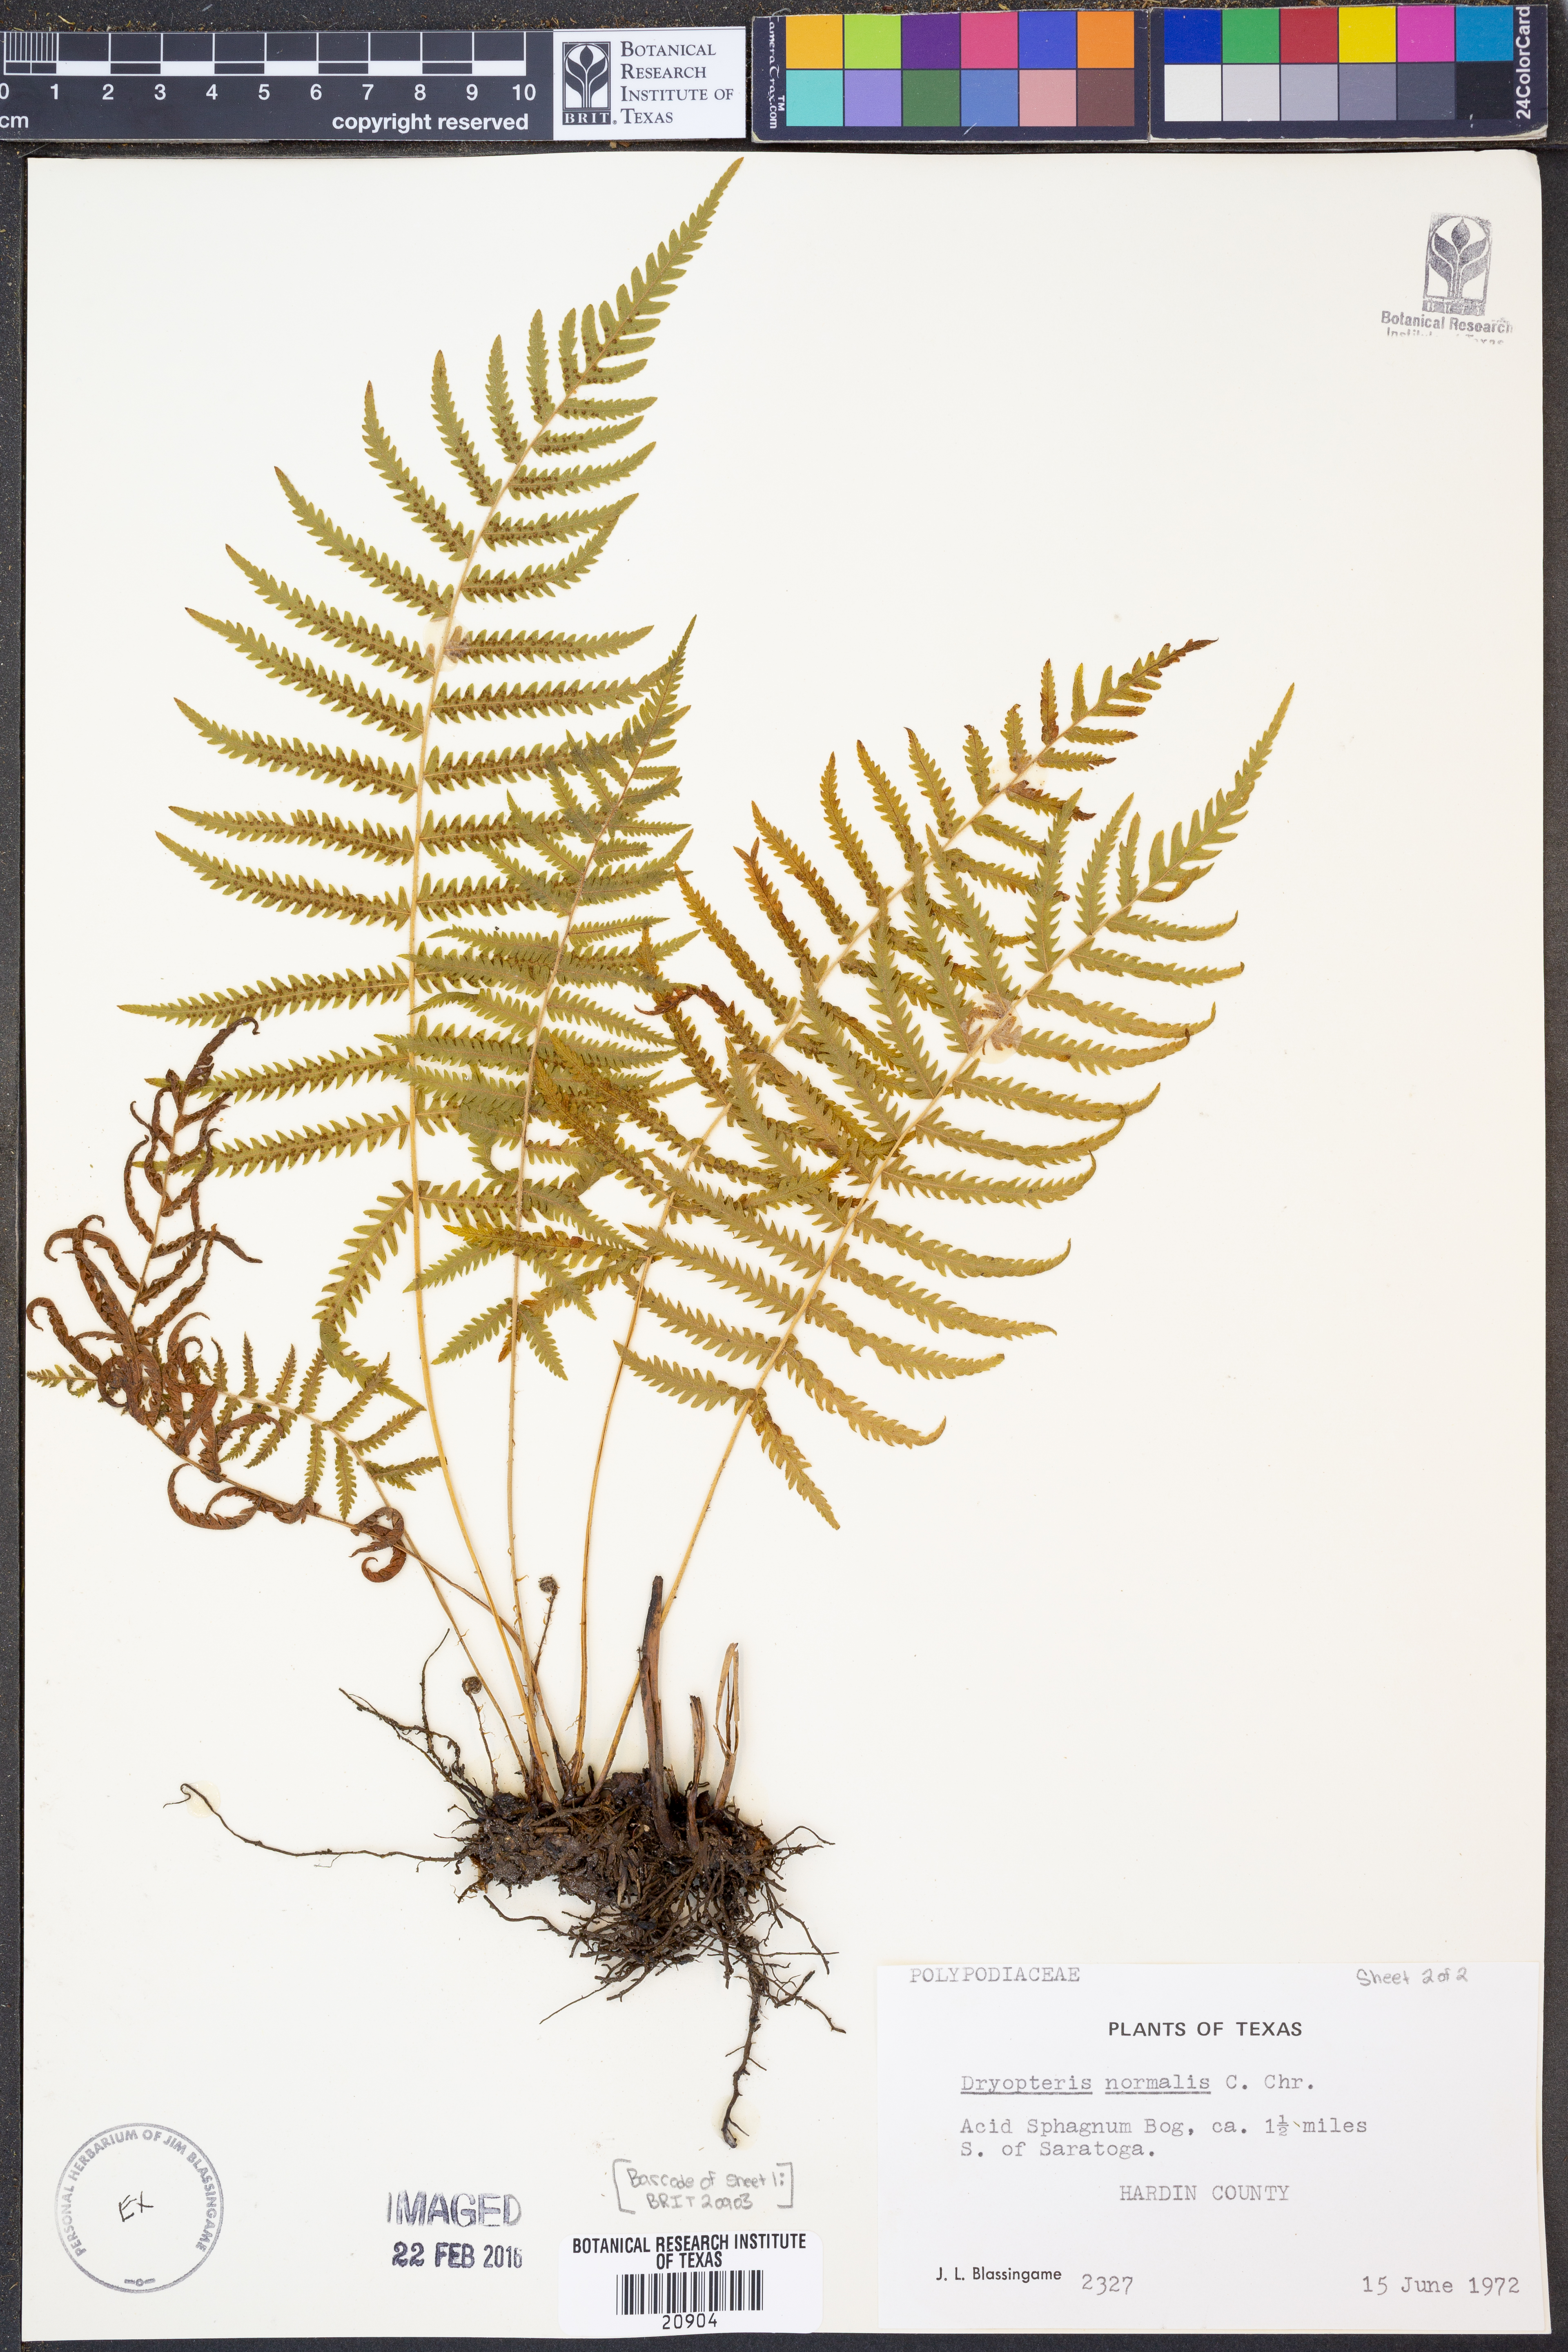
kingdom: Plantae
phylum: Tracheophyta
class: Polypodiopsida
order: Polypodiales
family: Thelypteridaceae
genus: Pelazoneuron
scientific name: Pelazoneuron kunthii
